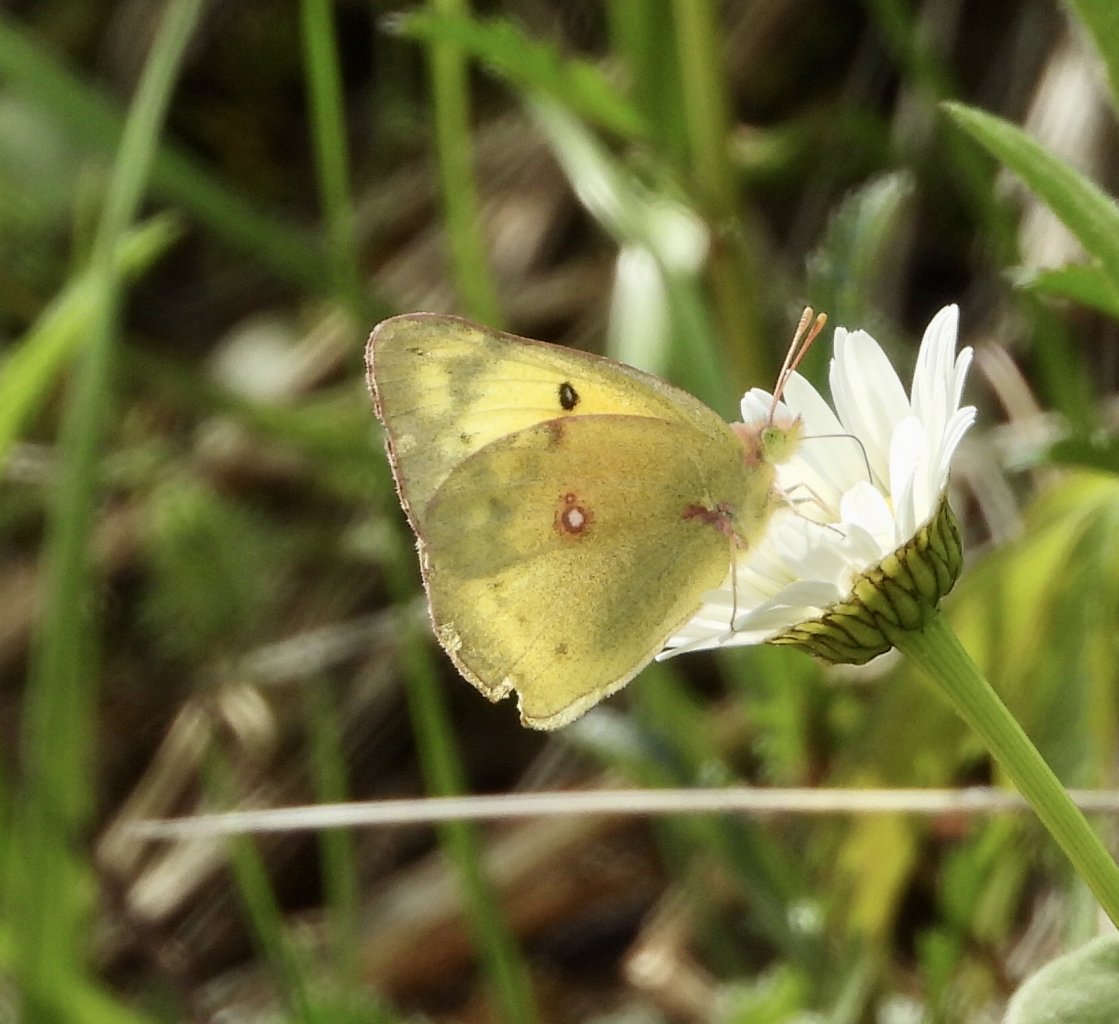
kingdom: Animalia
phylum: Arthropoda
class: Insecta
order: Lepidoptera
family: Pieridae
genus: Colias
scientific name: Colias philodice
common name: Clouded Sulphur
